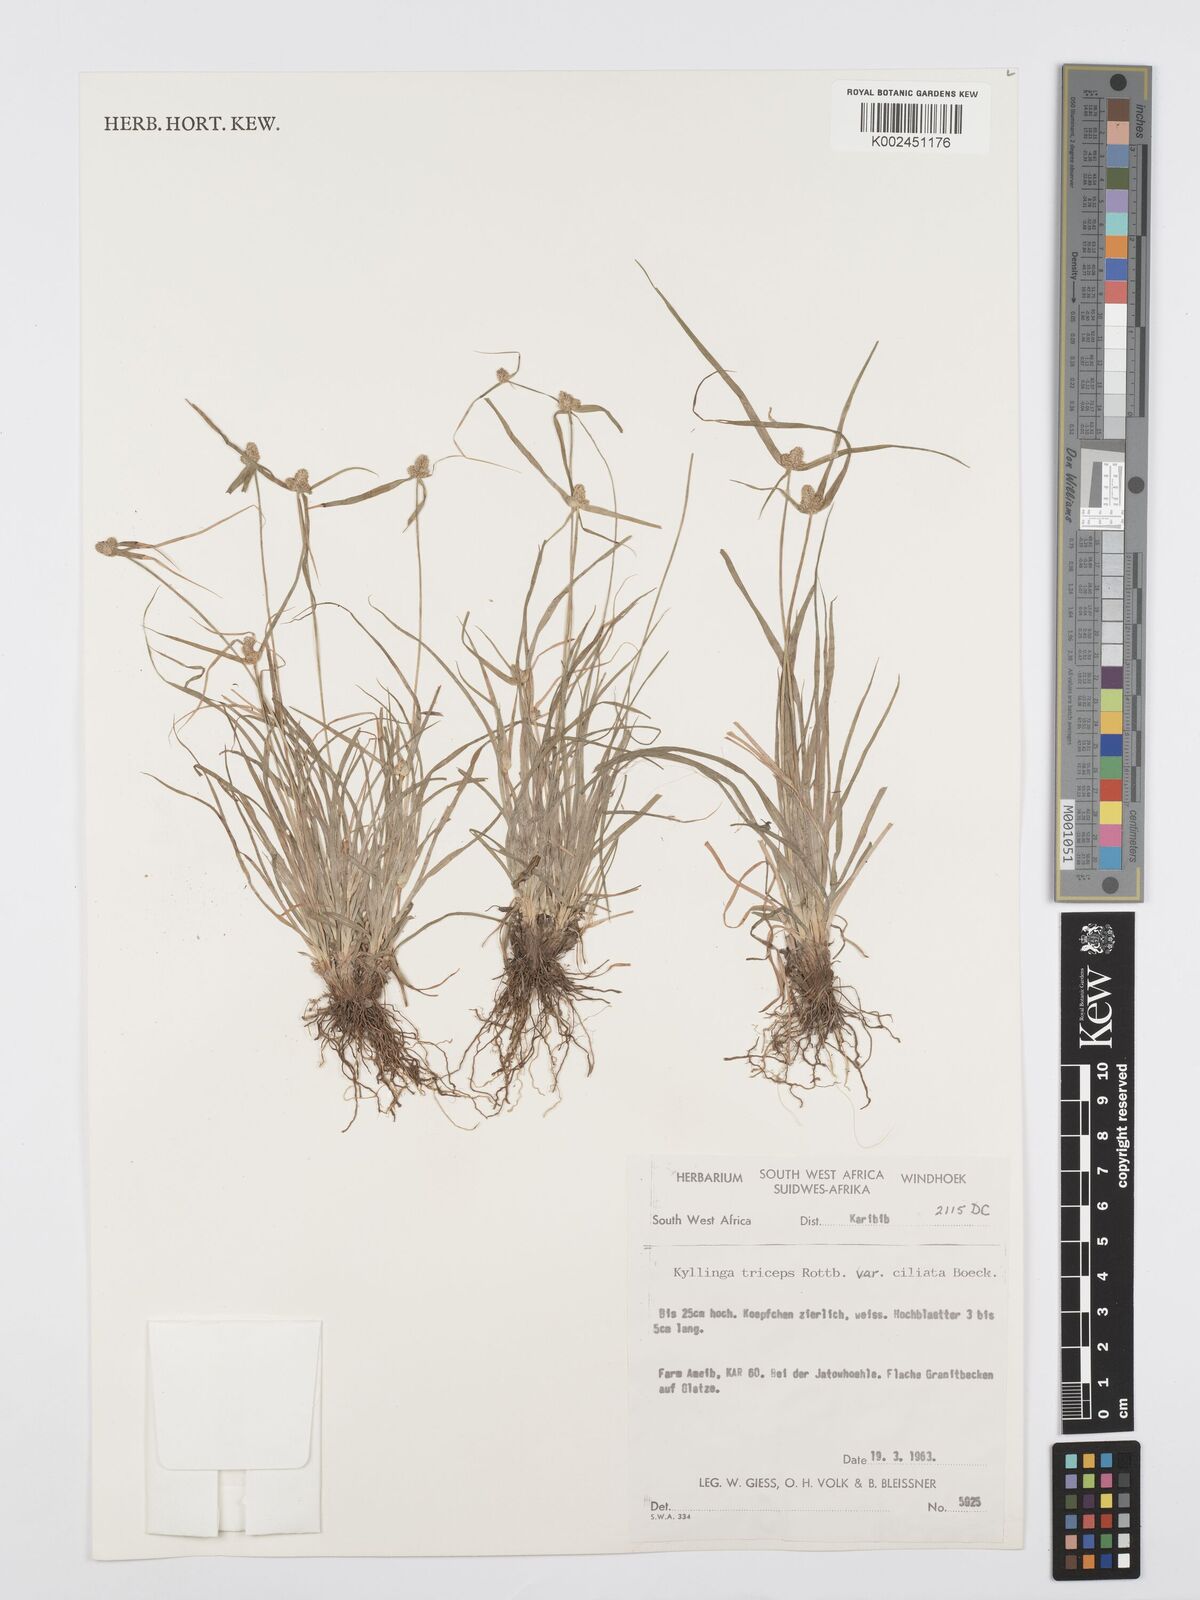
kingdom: Plantae
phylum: Tracheophyta
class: Liliopsida
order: Poales
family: Cyperaceae
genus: Cyperus
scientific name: Cyperus welwitschii
